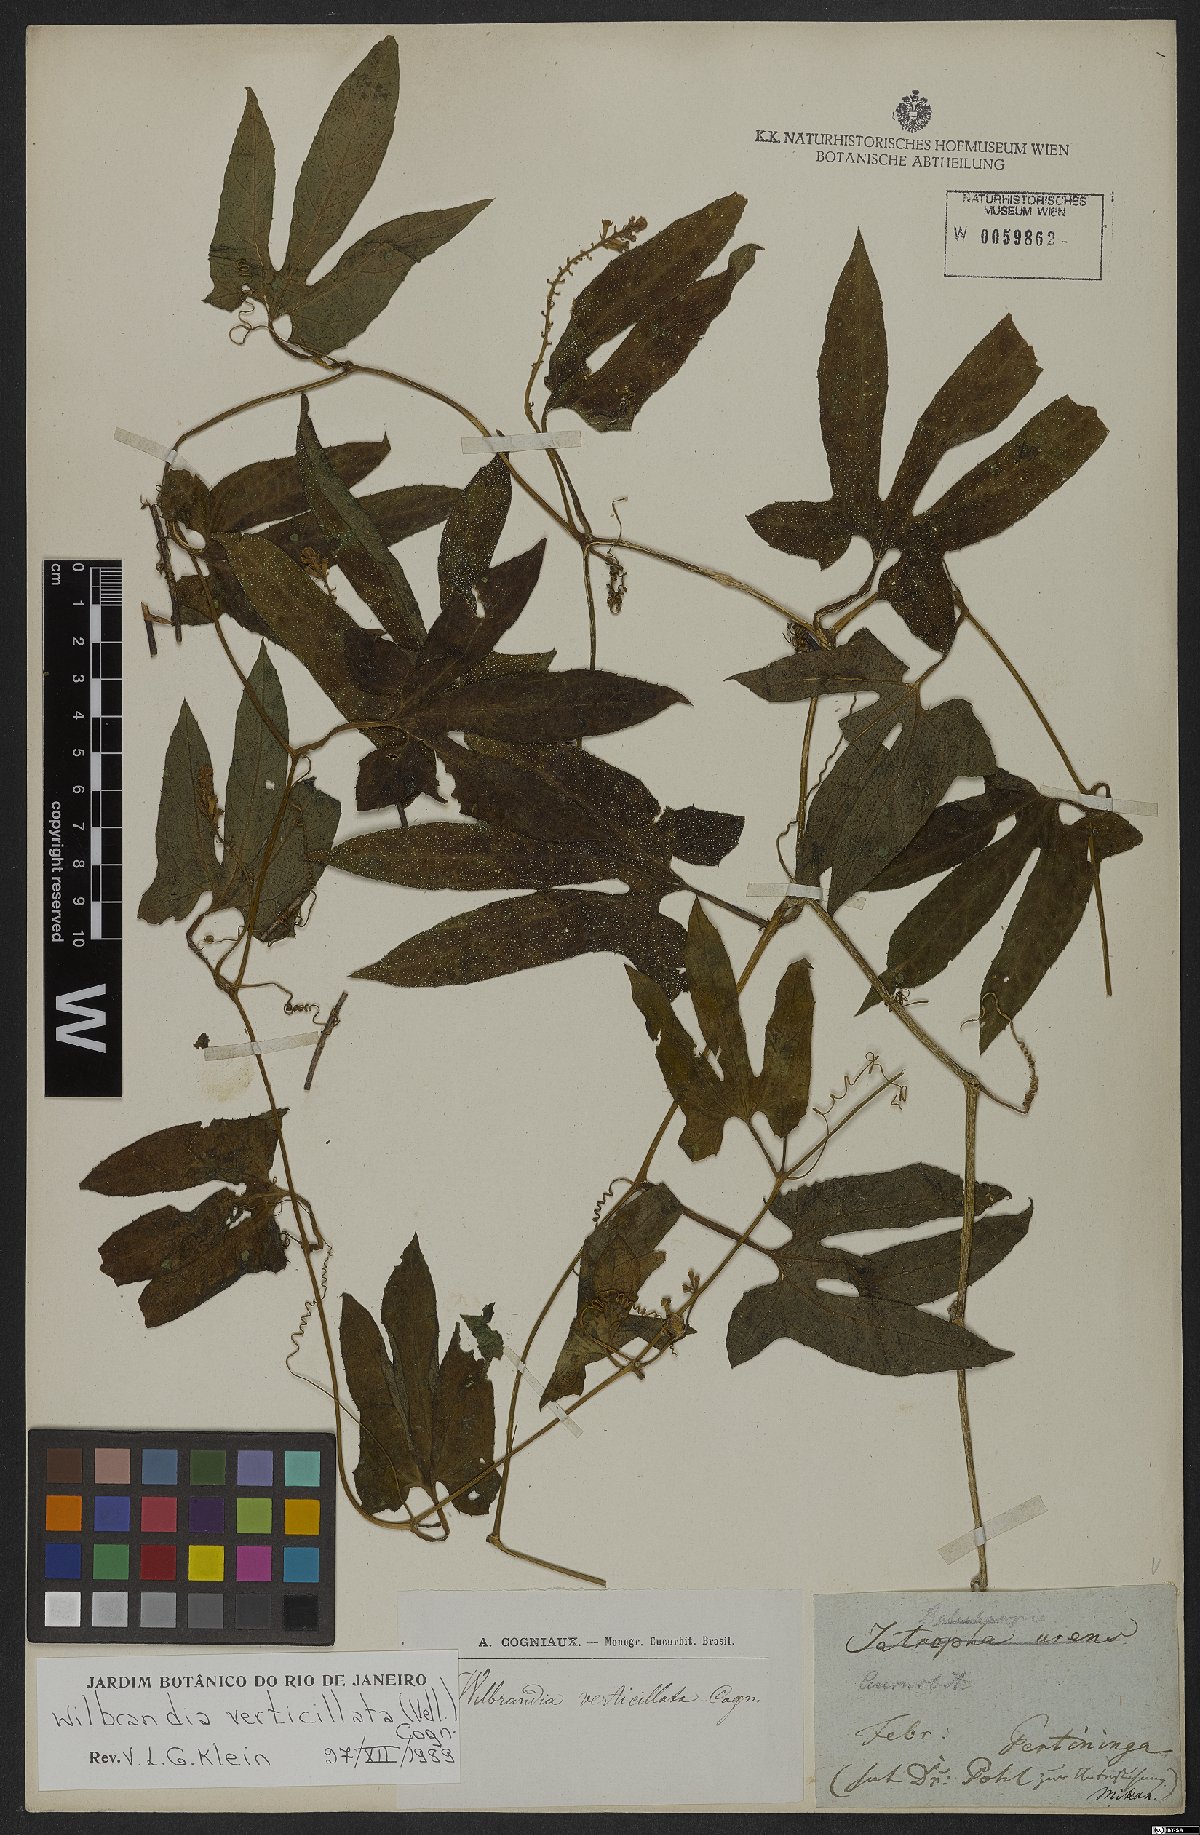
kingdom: Plantae
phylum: Tracheophyta
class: Magnoliopsida
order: Cucurbitales
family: Cucurbitaceae
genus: Wilbrandia
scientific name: Wilbrandia verticillata
